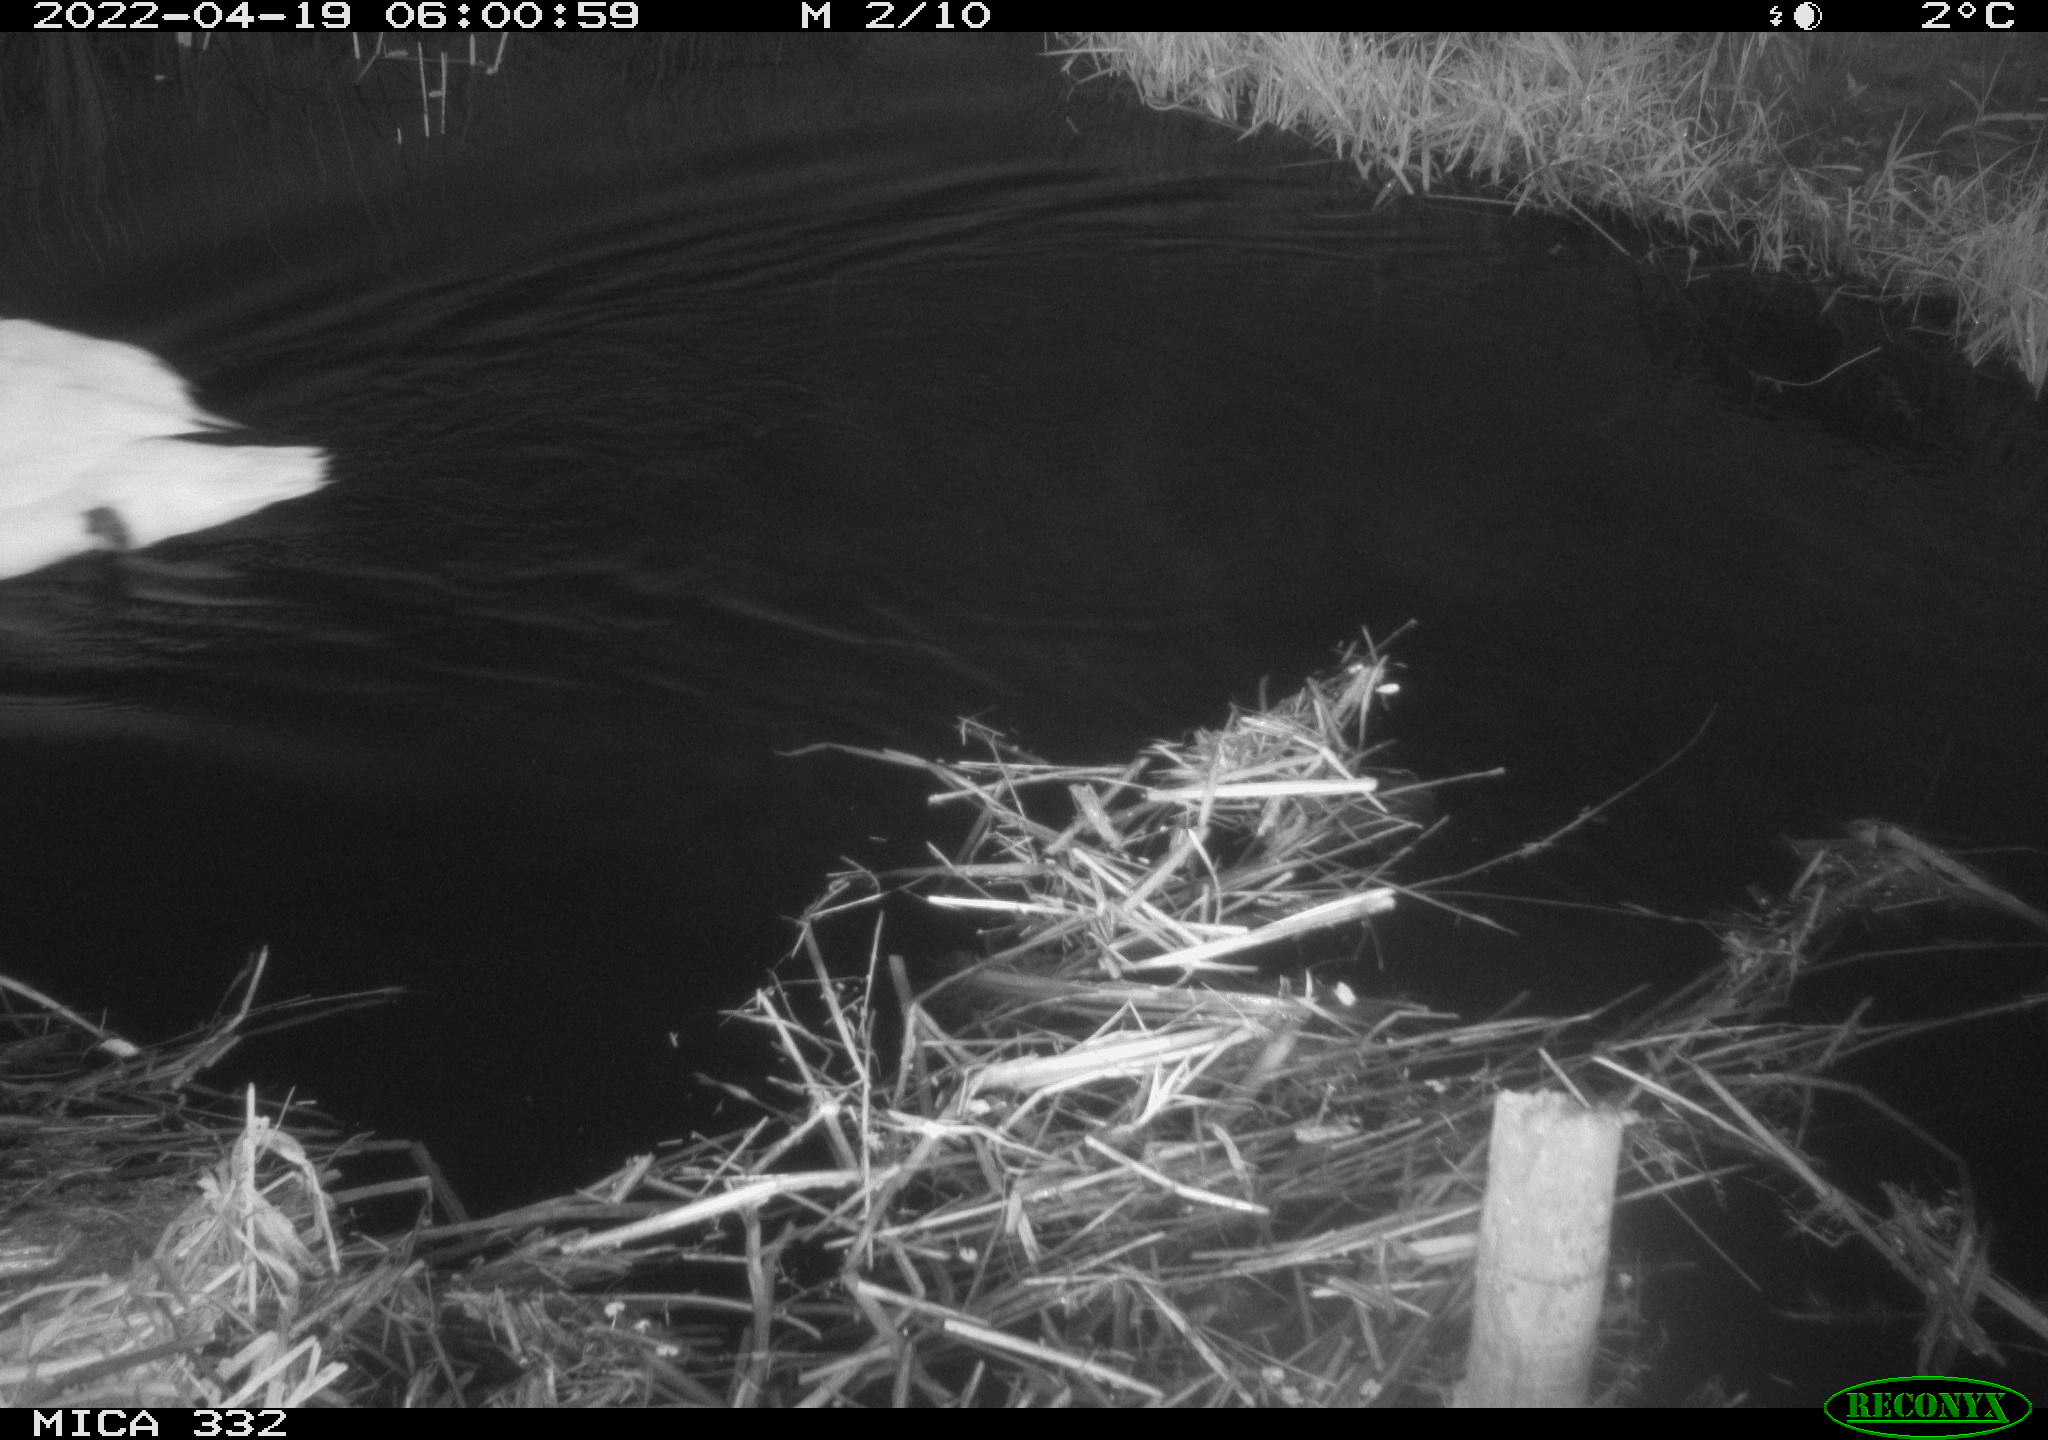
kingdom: Animalia
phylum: Chordata
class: Aves
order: Anseriformes
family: Anatidae
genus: Cygnus
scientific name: Cygnus olor
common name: Mute swan
